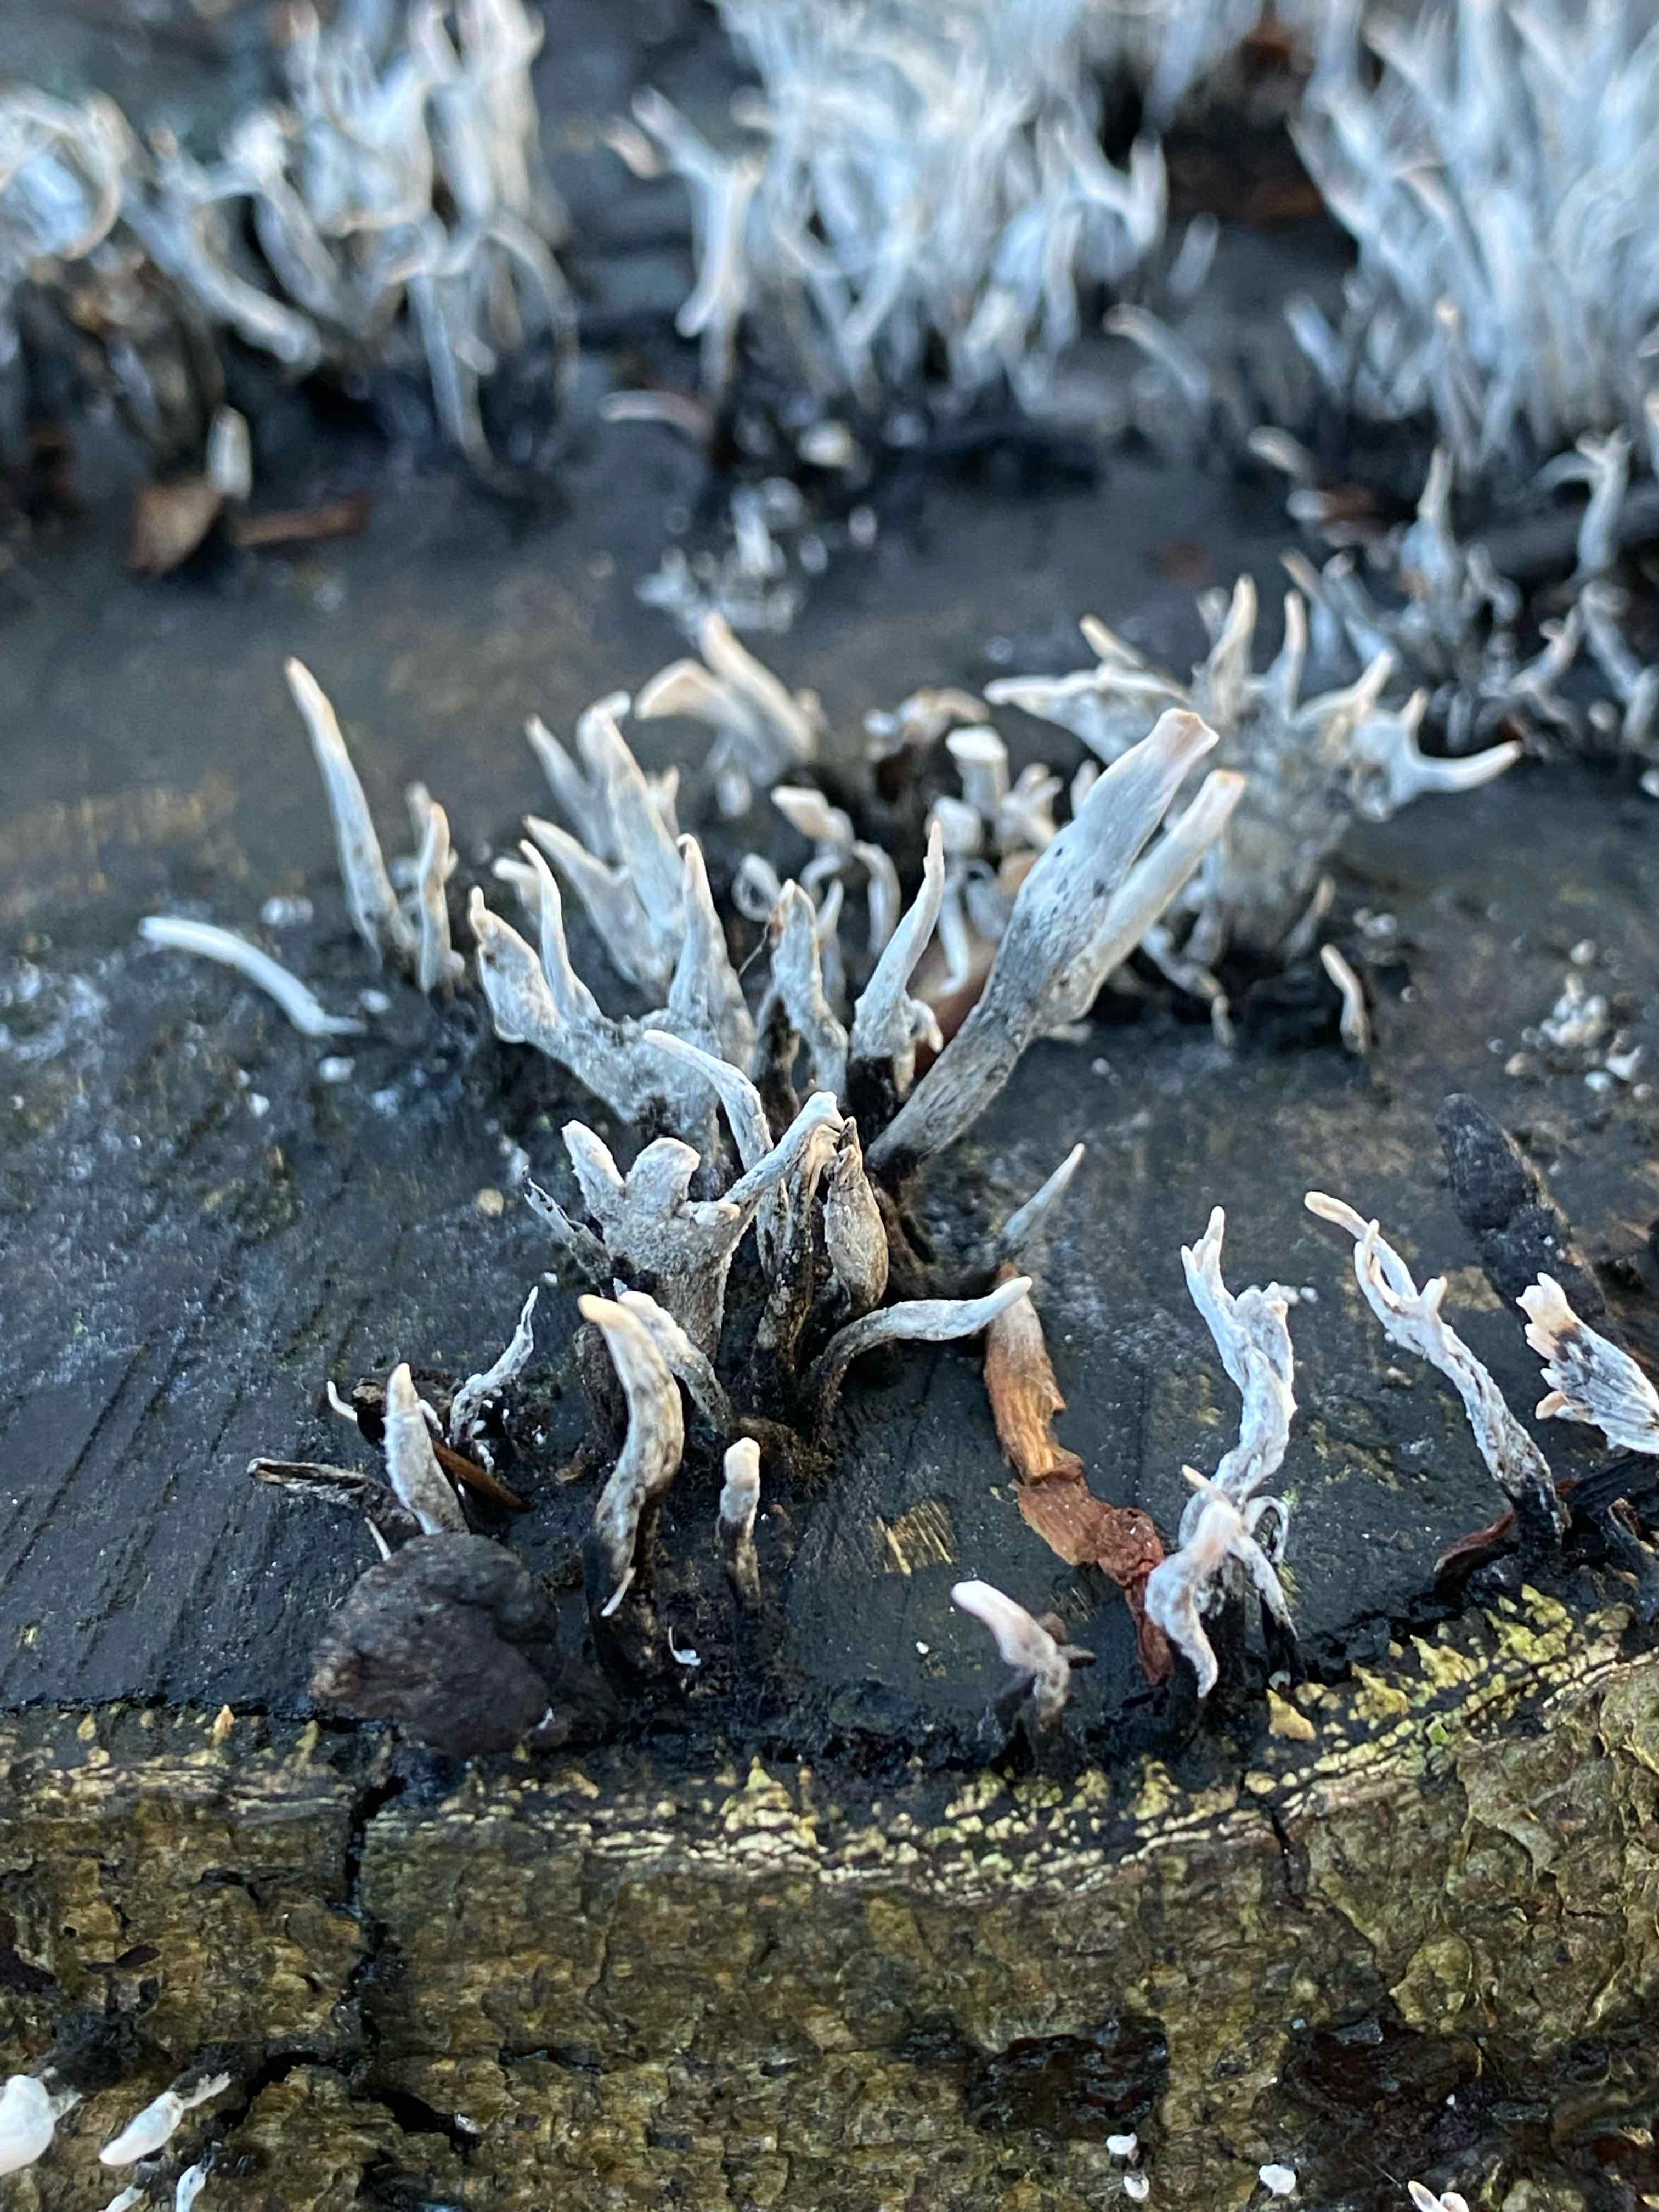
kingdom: Fungi
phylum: Ascomycota
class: Sordariomycetes
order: Xylariales
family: Xylariaceae
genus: Xylaria
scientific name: Xylaria hypoxylon
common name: grenet stødsvamp
